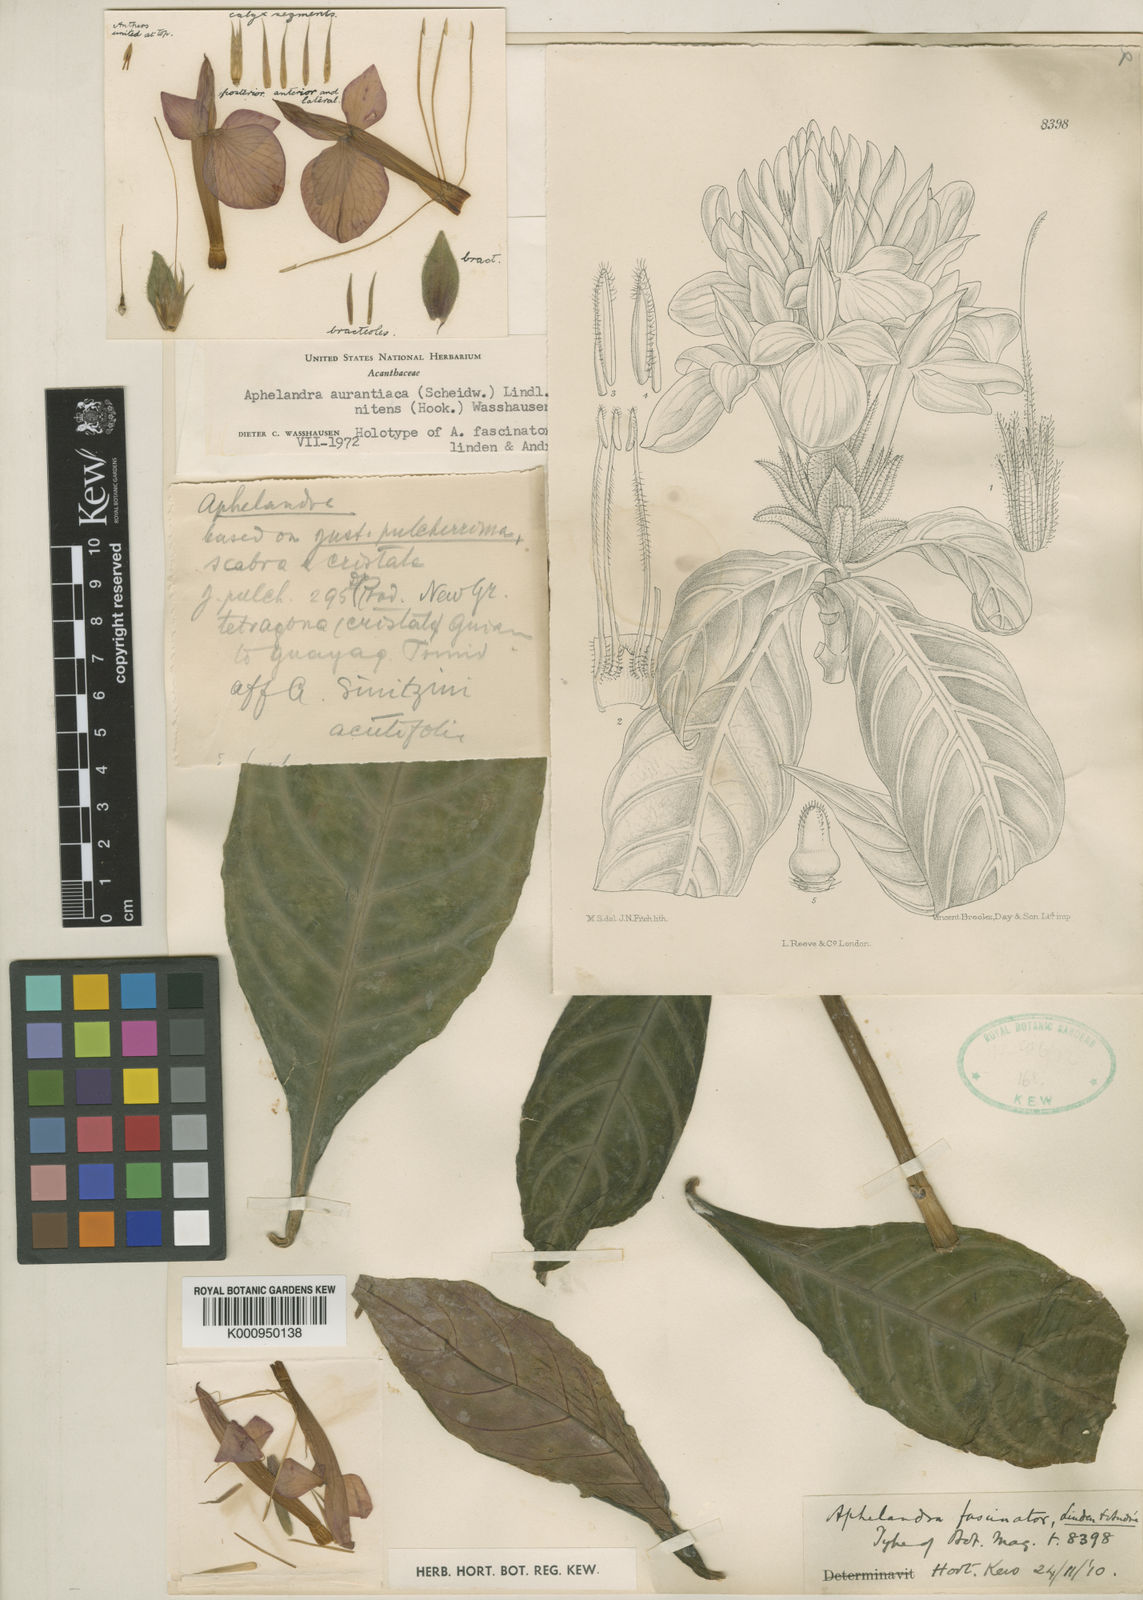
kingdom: Plantae
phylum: Tracheophyta
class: Magnoliopsida
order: Lamiales
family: Acanthaceae
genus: Aphelandra
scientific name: Aphelandra aurantiaca
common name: Fiery spike
